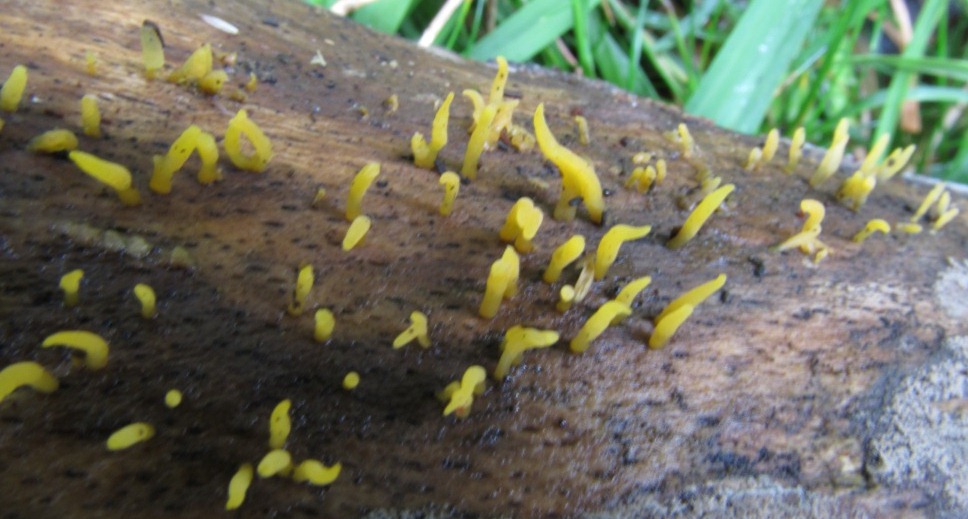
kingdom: Fungi
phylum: Basidiomycota
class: Dacrymycetes
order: Dacrymycetales
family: Dacrymycetaceae
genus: Calocera
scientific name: Calocera cornea
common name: liden guldgaffel
